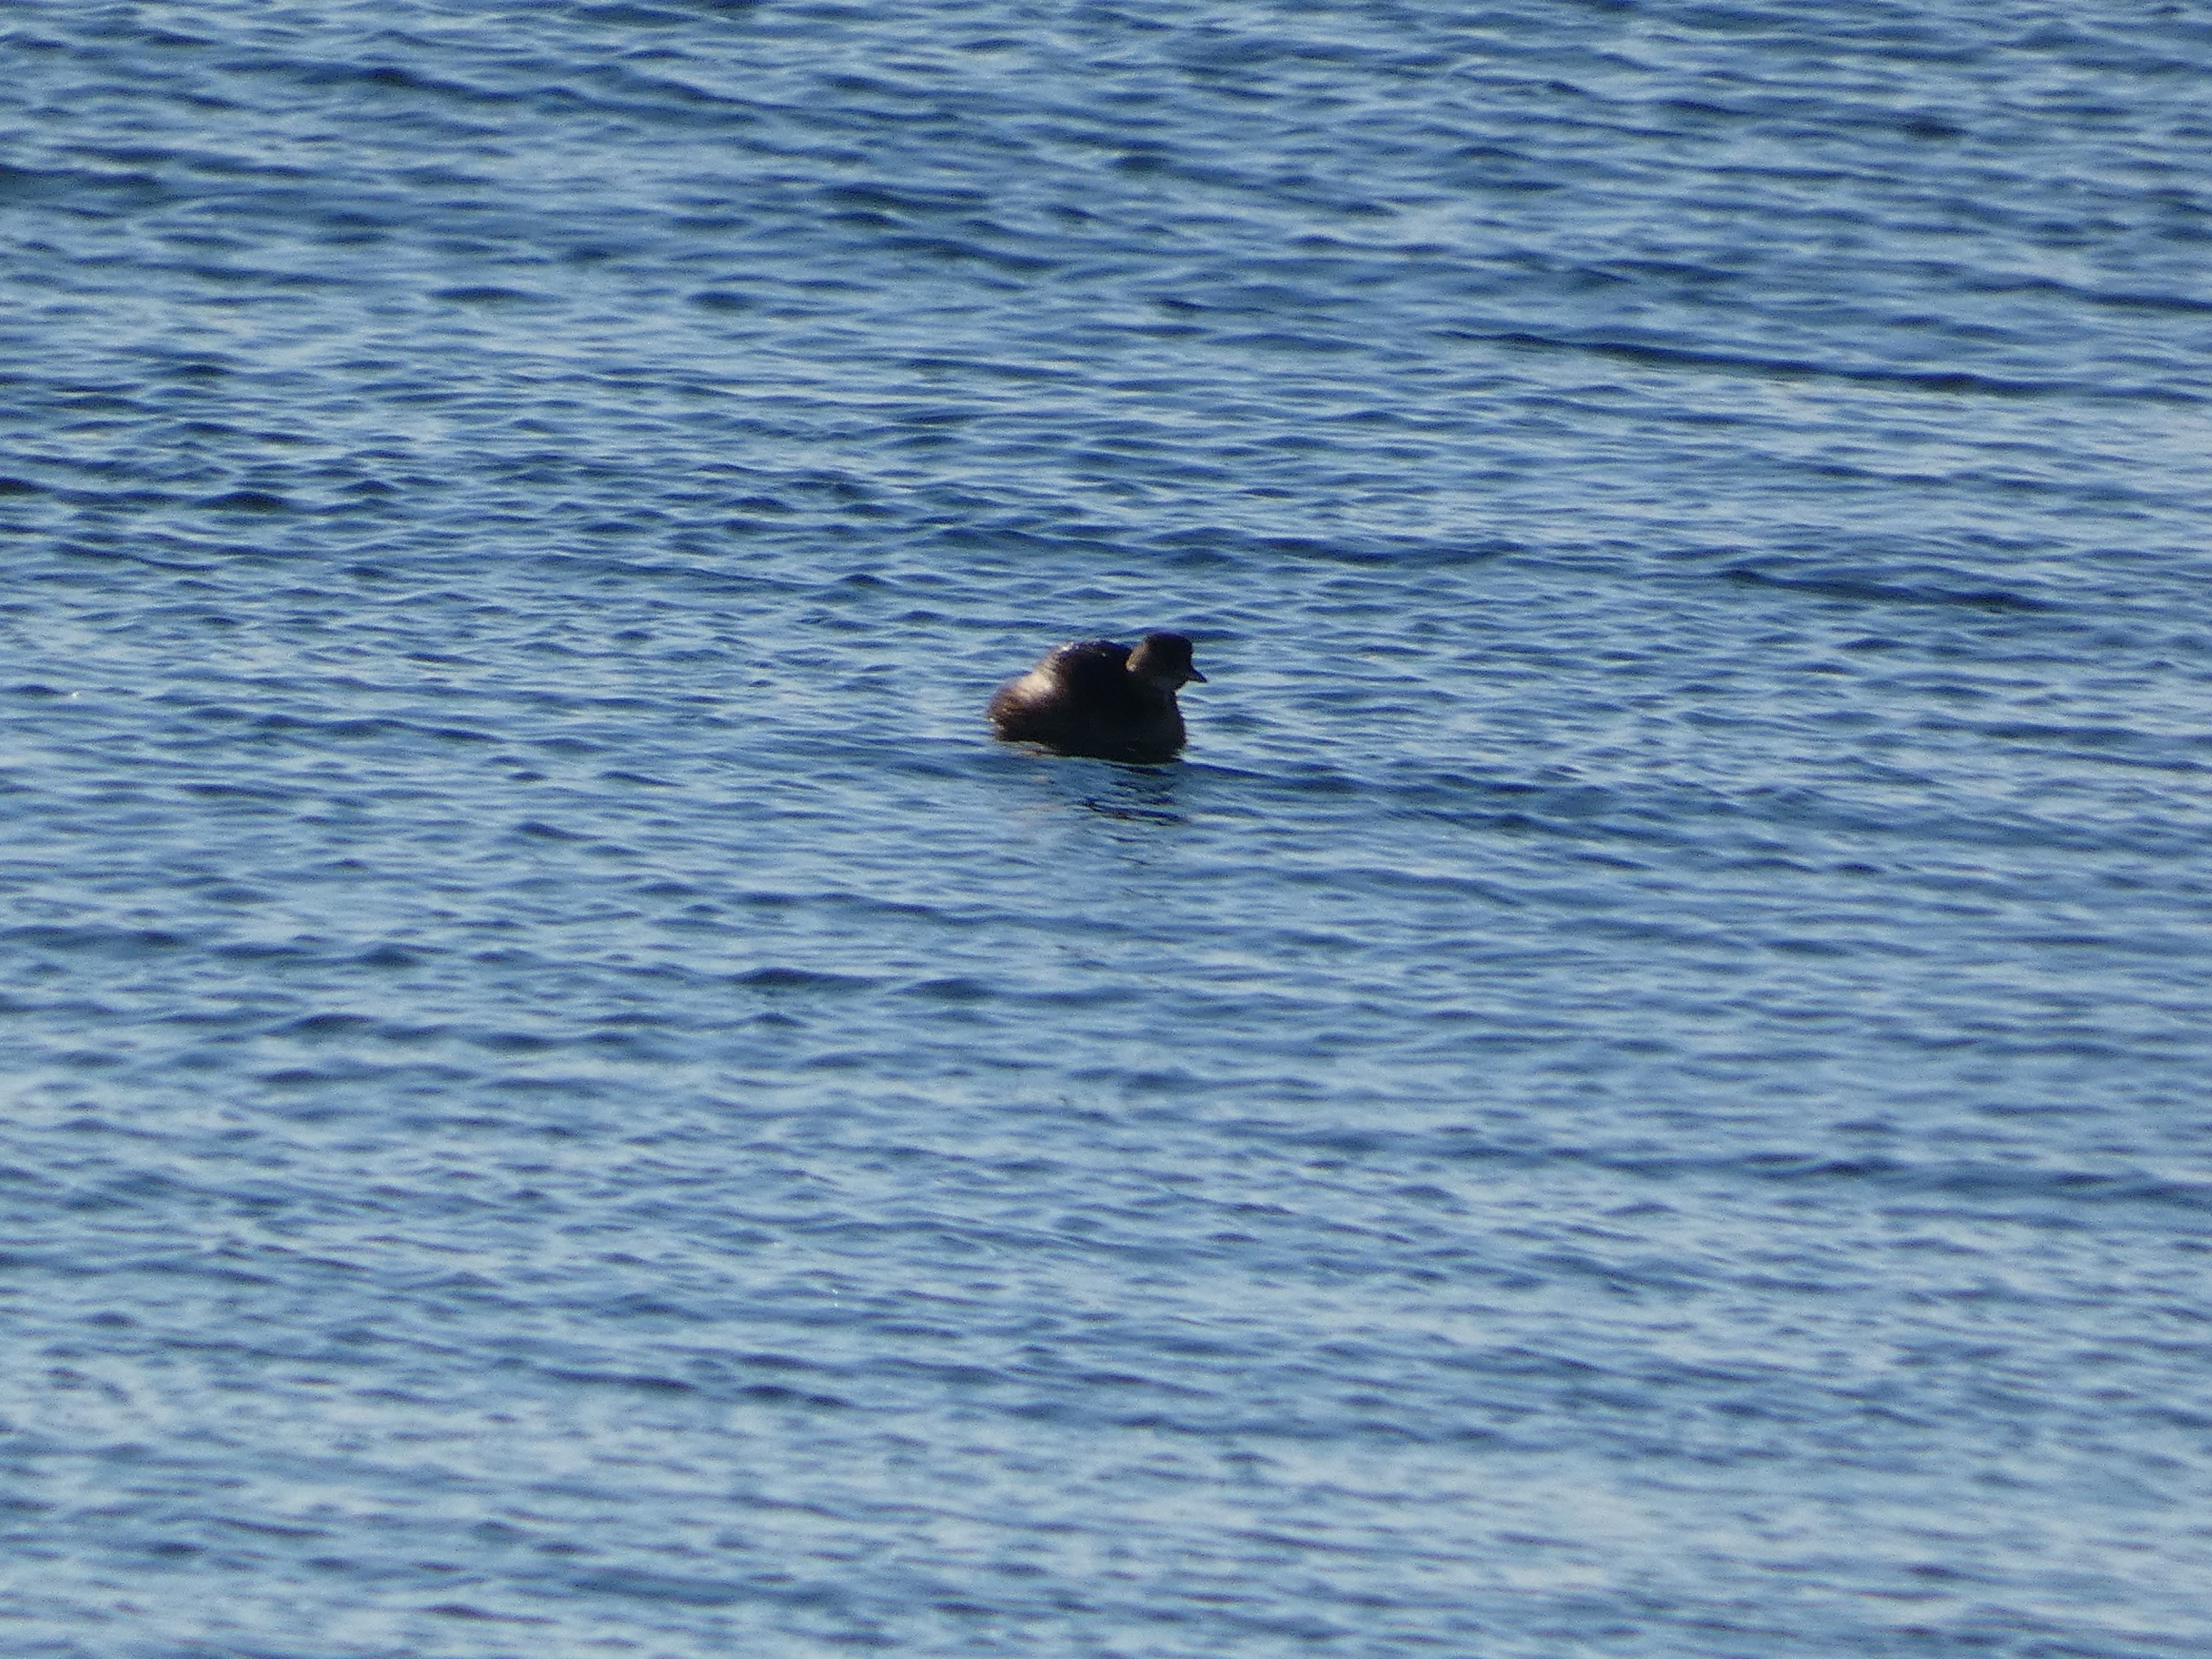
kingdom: Animalia
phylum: Chordata
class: Aves
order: Podicipediformes
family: Podicipedidae
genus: Tachybaptus
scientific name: Tachybaptus ruficollis
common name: Lille lappedykker
